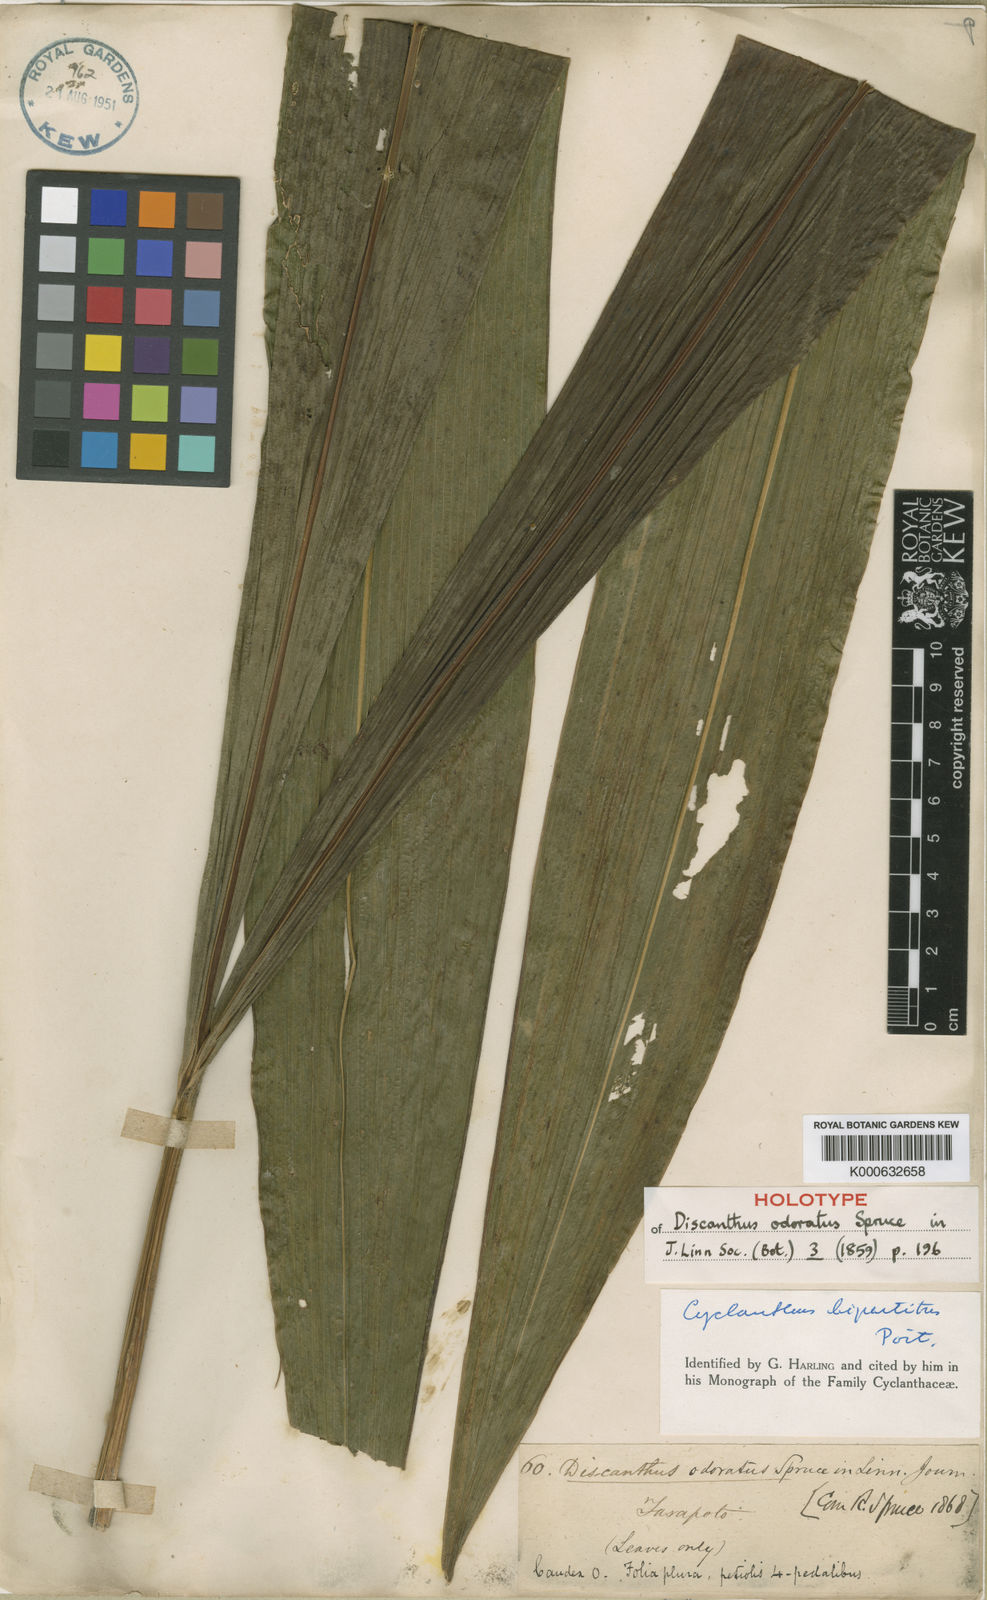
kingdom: Plantae
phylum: Tracheophyta
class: Liliopsida
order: Pandanales
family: Cyclanthaceae
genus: Cyclanthus
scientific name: Cyclanthus bipartitus
